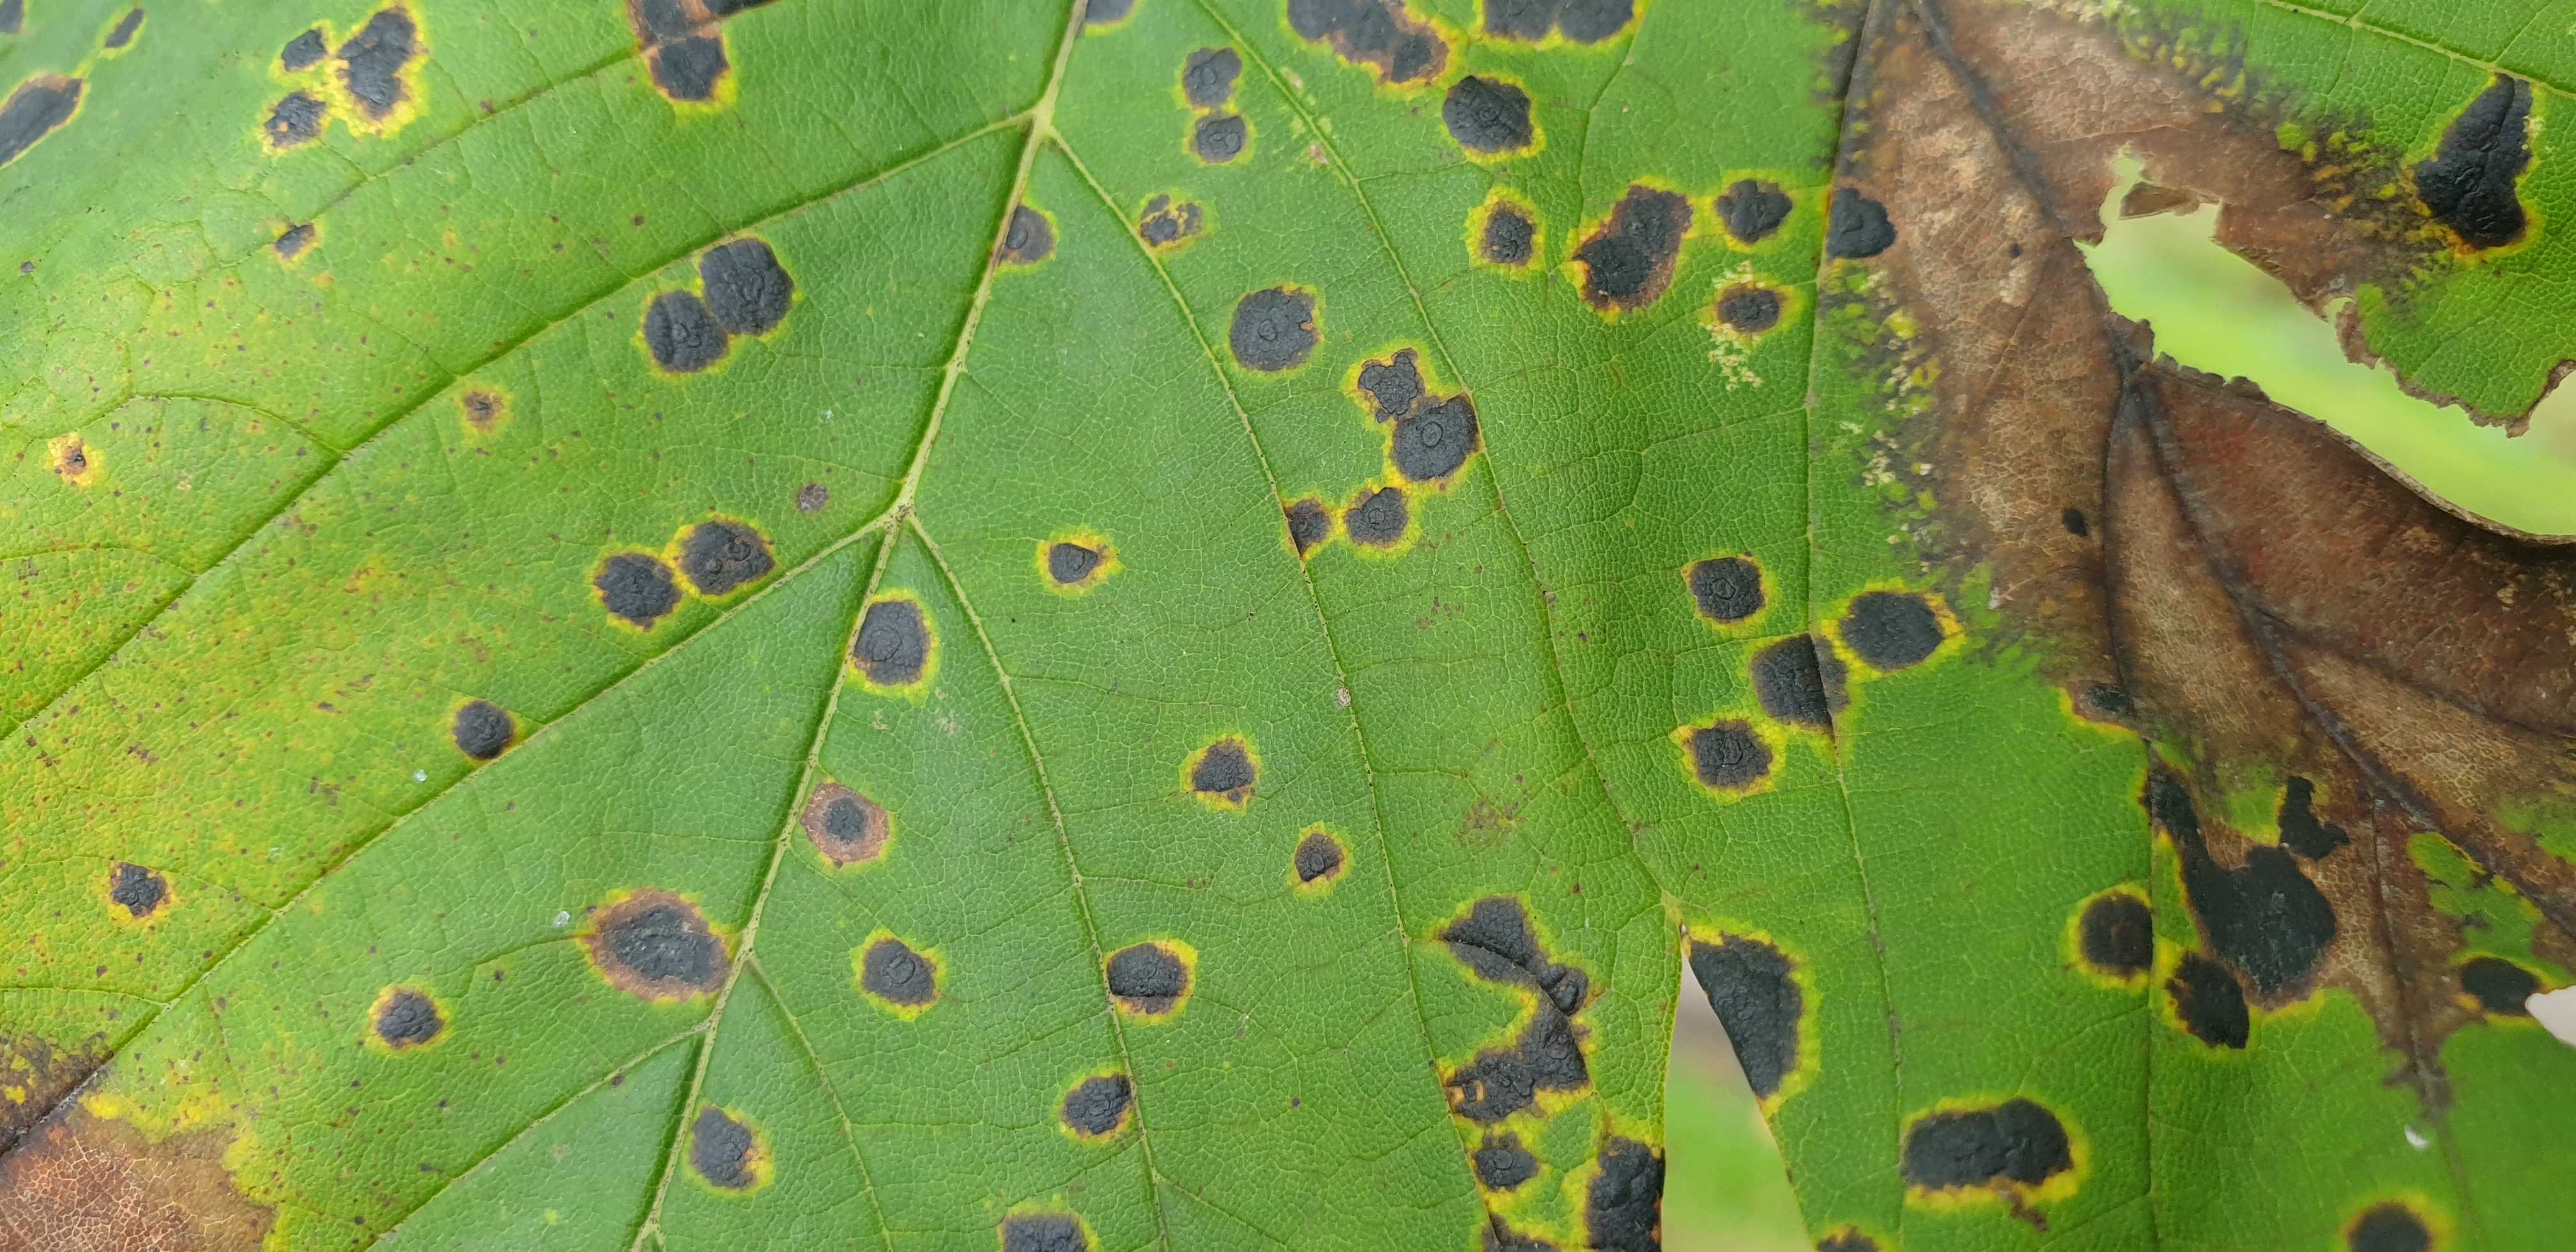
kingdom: Fungi
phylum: Ascomycota
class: Leotiomycetes
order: Rhytismatales
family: Rhytismataceae
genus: Rhytisma
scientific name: Rhytisma acerinum
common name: ahorn-rynkeplet
